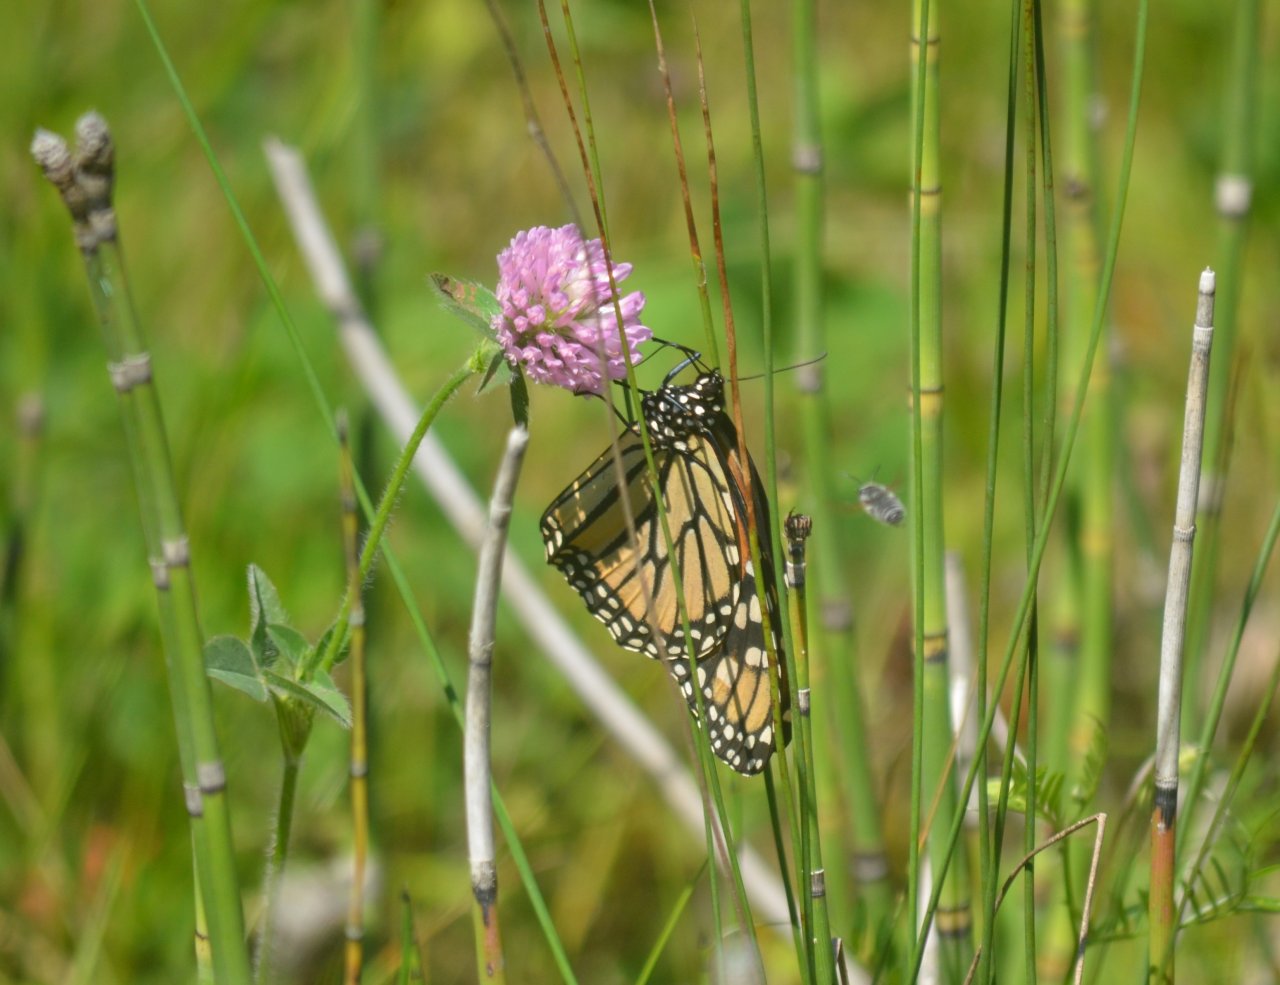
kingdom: Animalia
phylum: Arthropoda
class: Insecta
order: Lepidoptera
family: Nymphalidae
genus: Danaus
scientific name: Danaus plexippus
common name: Monarch
